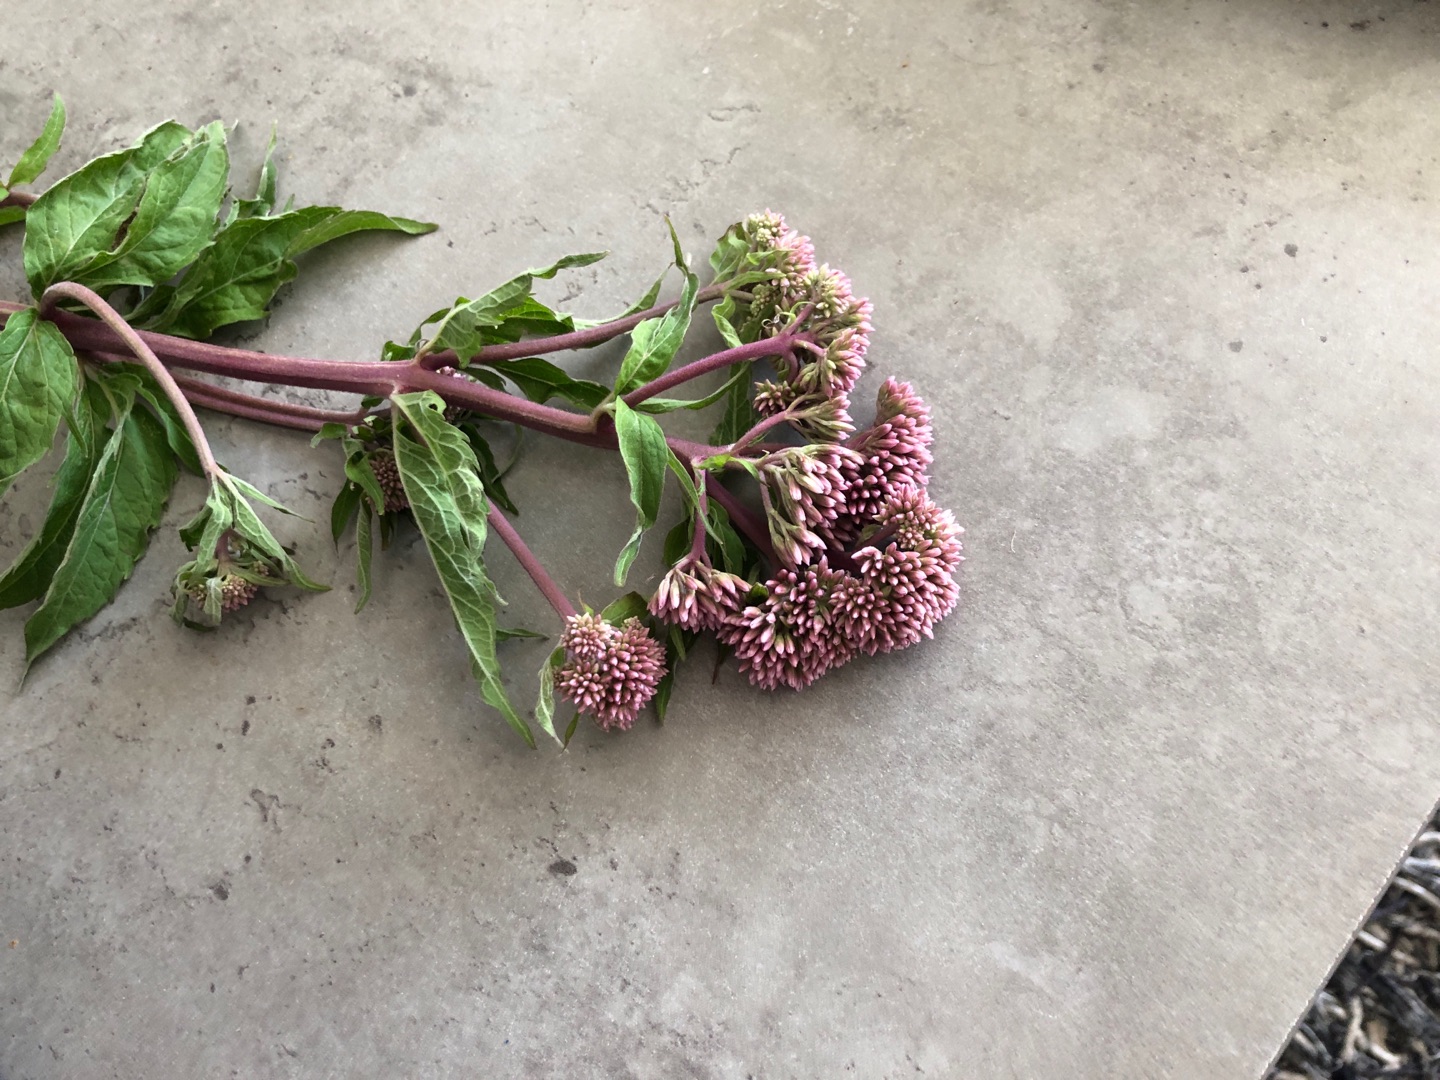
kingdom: Plantae
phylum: Tracheophyta
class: Magnoliopsida
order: Asterales
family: Asteraceae
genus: Eupatorium
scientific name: Eupatorium cannabinum
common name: Hjortetrøst
